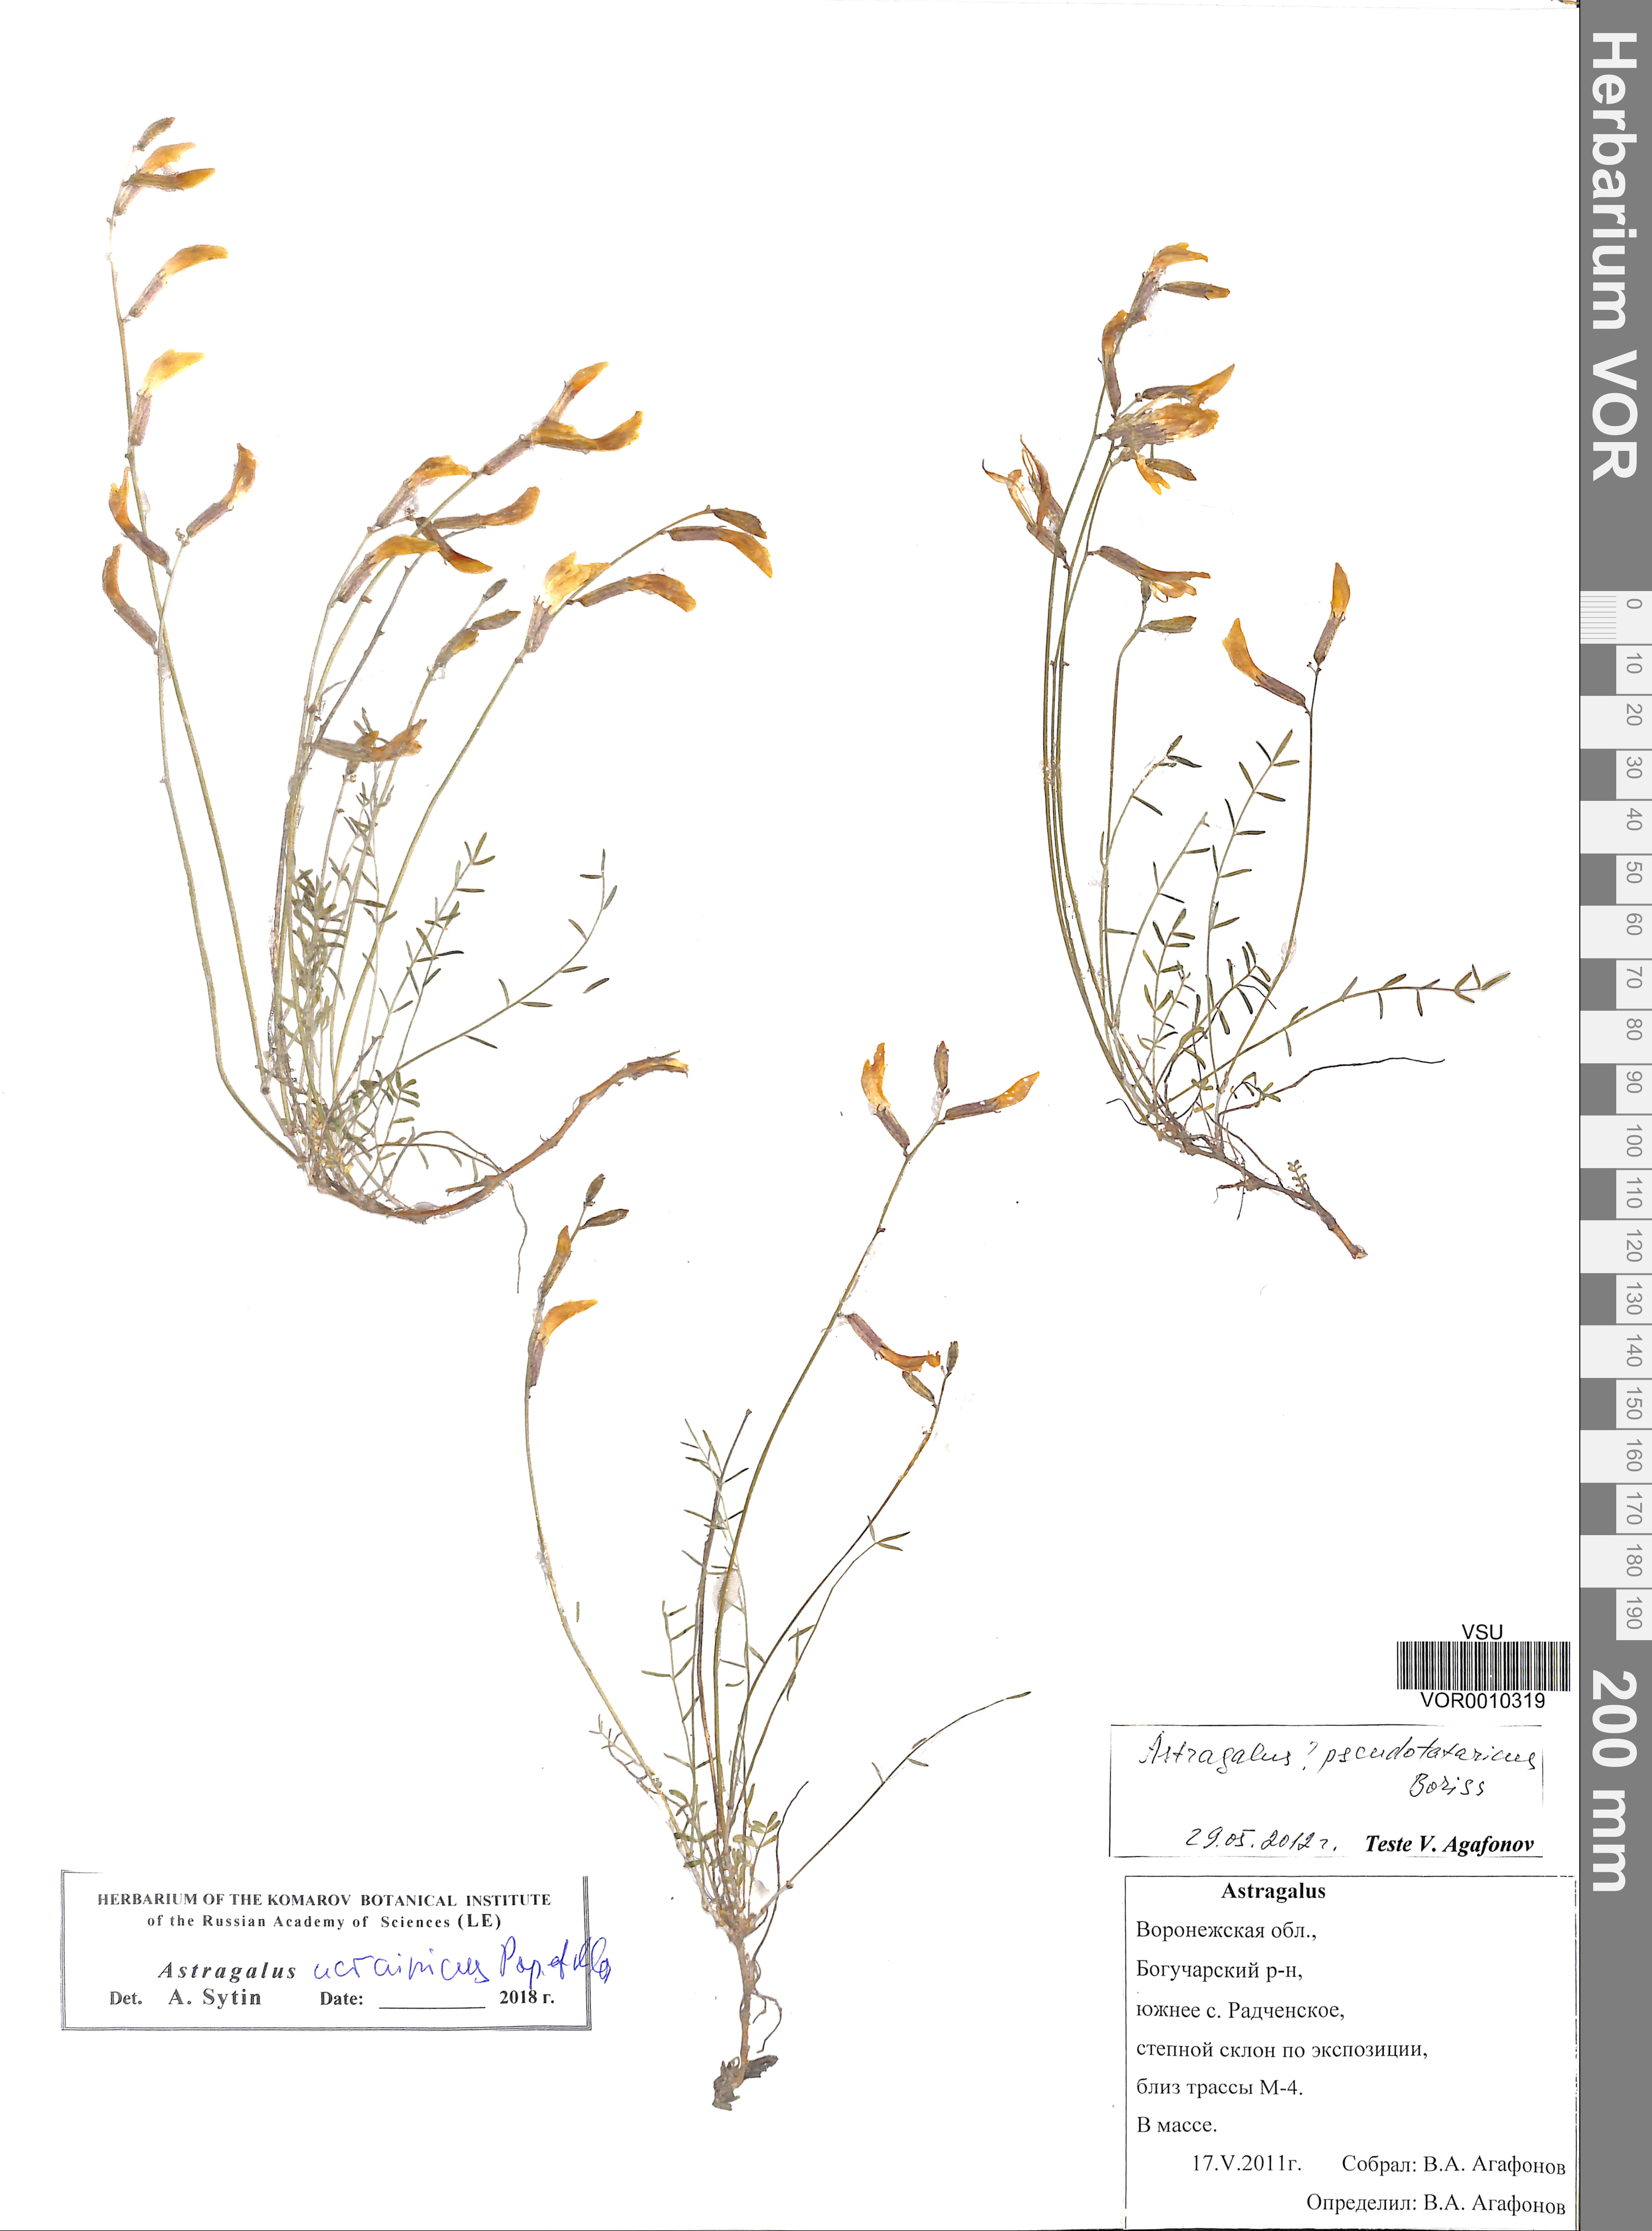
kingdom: Plantae
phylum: Tracheophyta
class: Magnoliopsida
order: Fabales
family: Fabaceae
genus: Astragalus
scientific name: Astragalus ucrainicus
